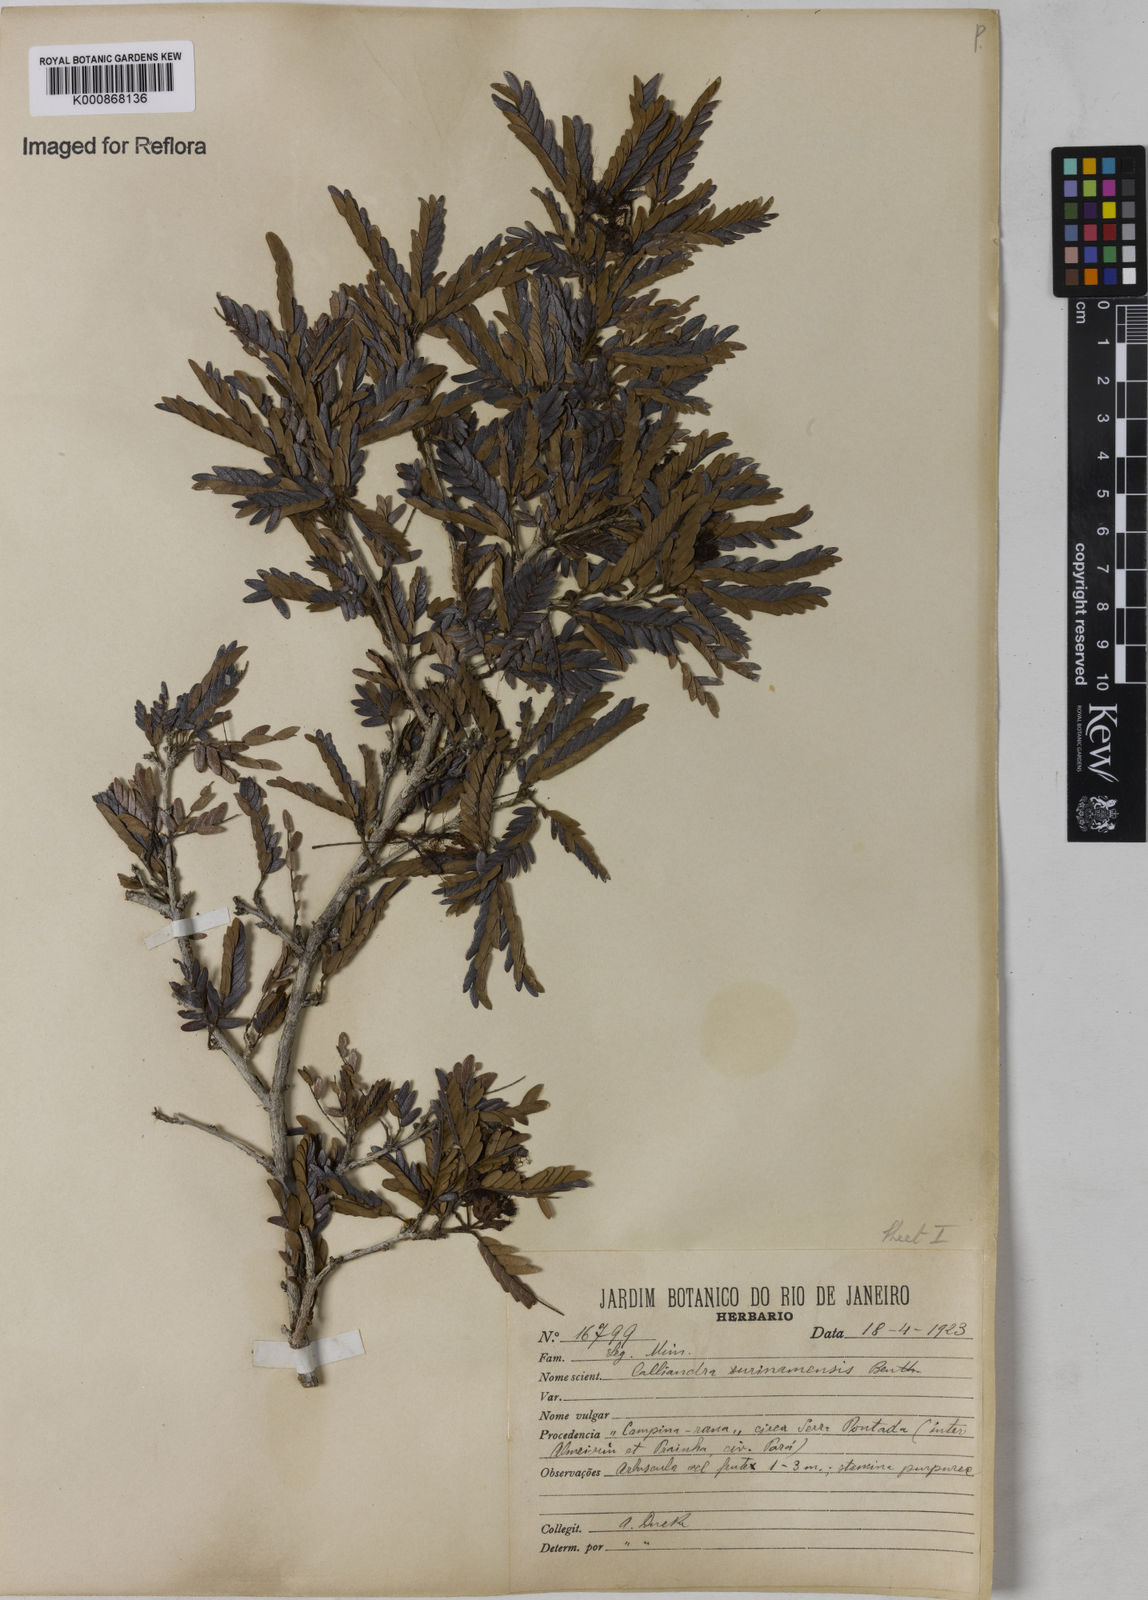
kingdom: Plantae
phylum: Tracheophyta
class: Magnoliopsida
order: Fabales
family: Fabaceae
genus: Calliandra
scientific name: Calliandra surinamensis
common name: Pink powder puff
